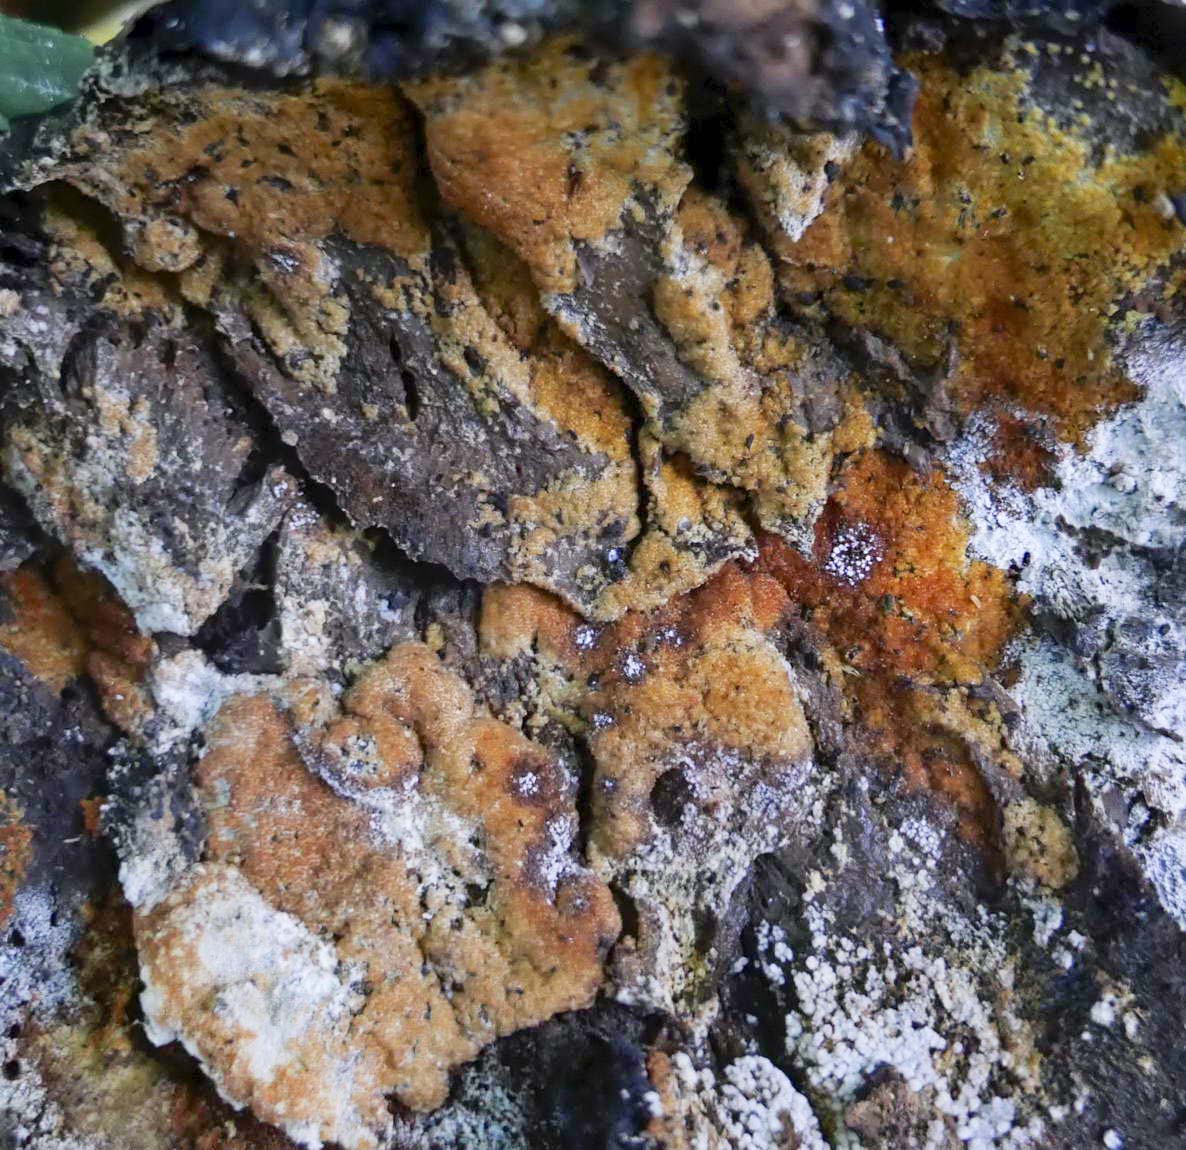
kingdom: Fungi
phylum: Ascomycota
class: Sordariomycetes
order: Hypocreales
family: Hypocreaceae
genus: Hypomyces
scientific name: Hypomyces aurantius
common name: almindelig snylteskorpe
